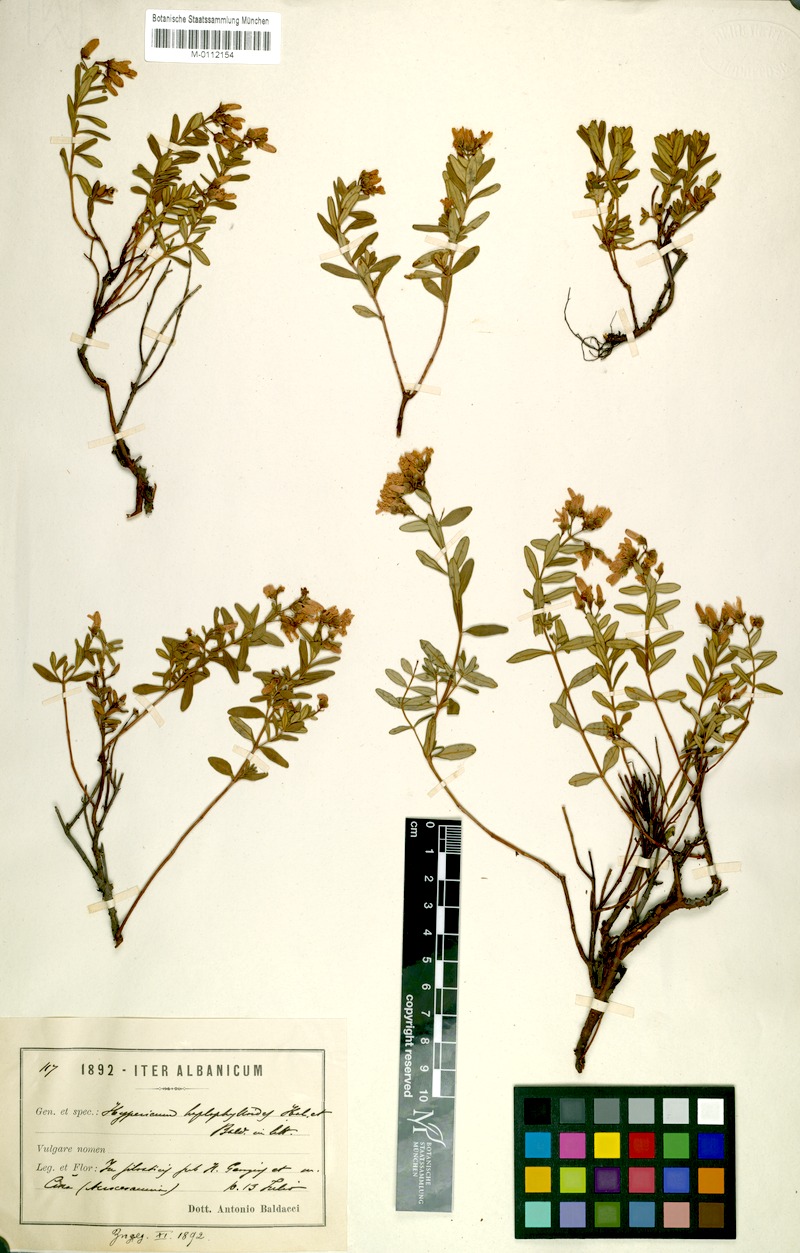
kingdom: Plantae
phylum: Tracheophyta
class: Magnoliopsida
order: Malpighiales
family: Hypericaceae
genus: Hypericum
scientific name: Hypericum haplophylloides
